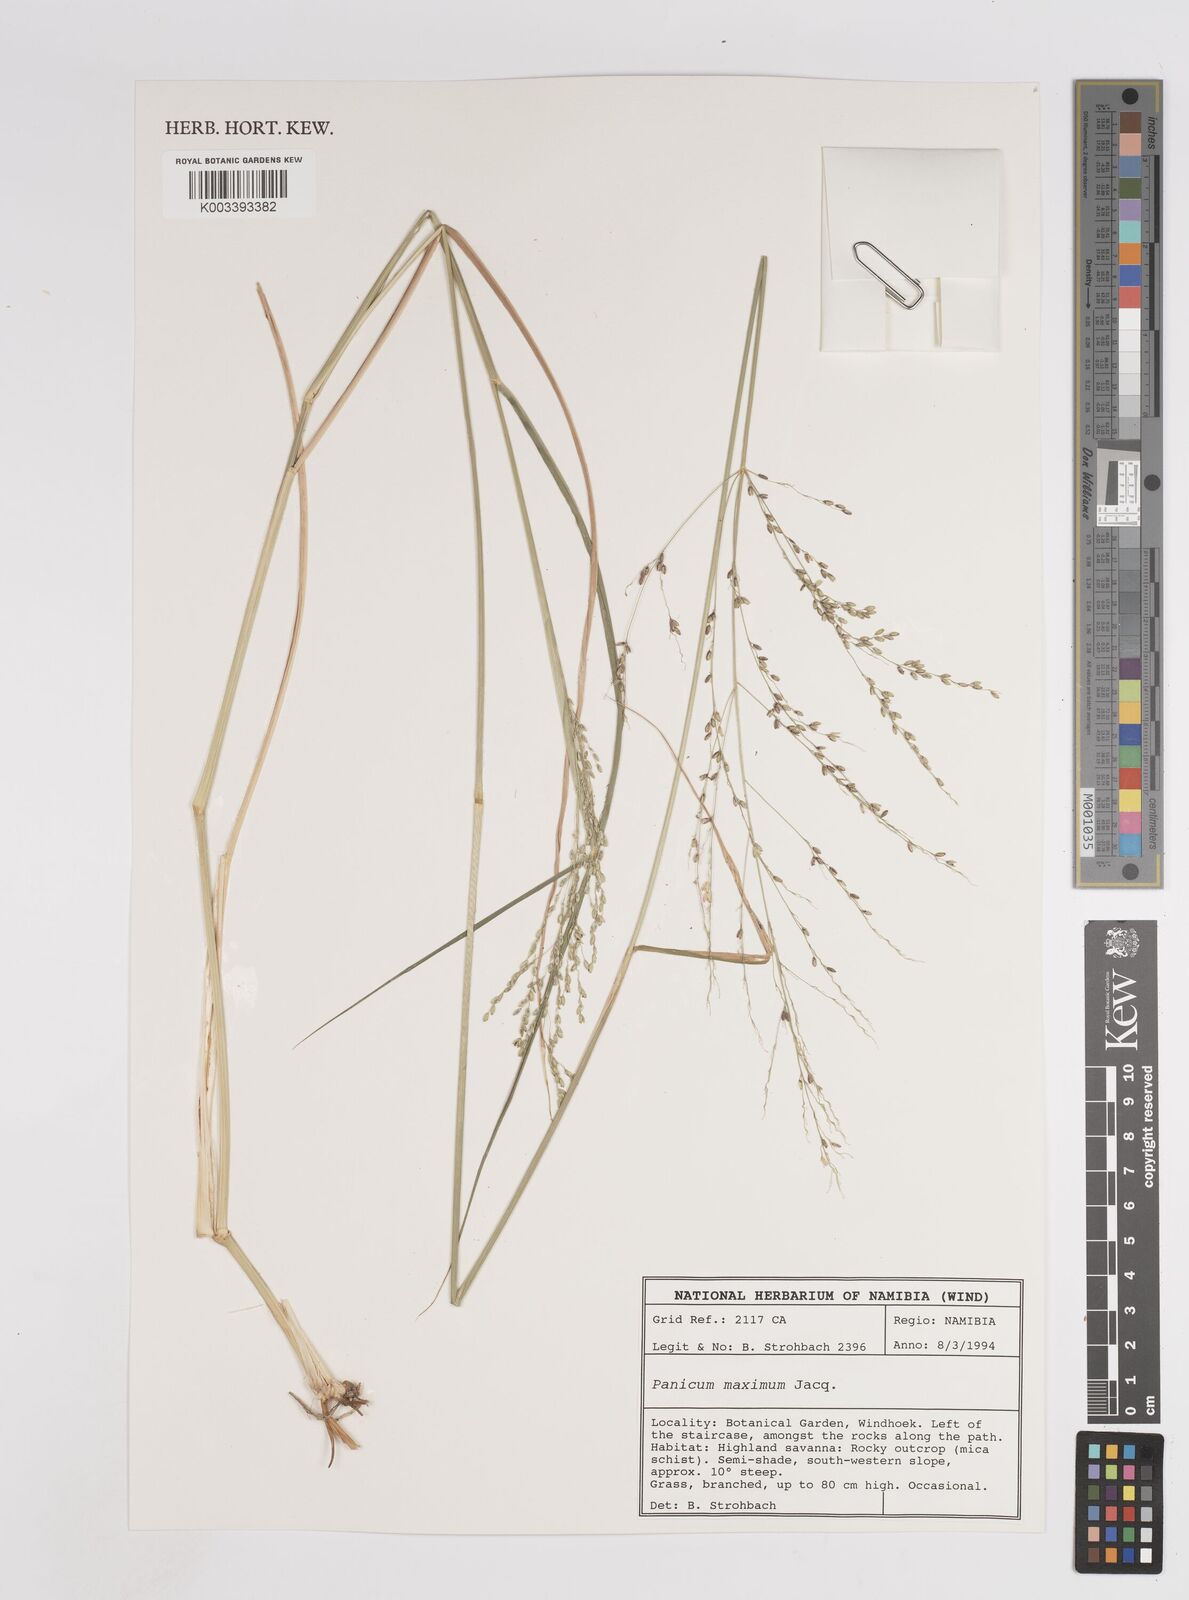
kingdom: Plantae
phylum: Tracheophyta
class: Liliopsida
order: Poales
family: Poaceae
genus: Megathyrsus
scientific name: Megathyrsus maximus
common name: Guineagrass
